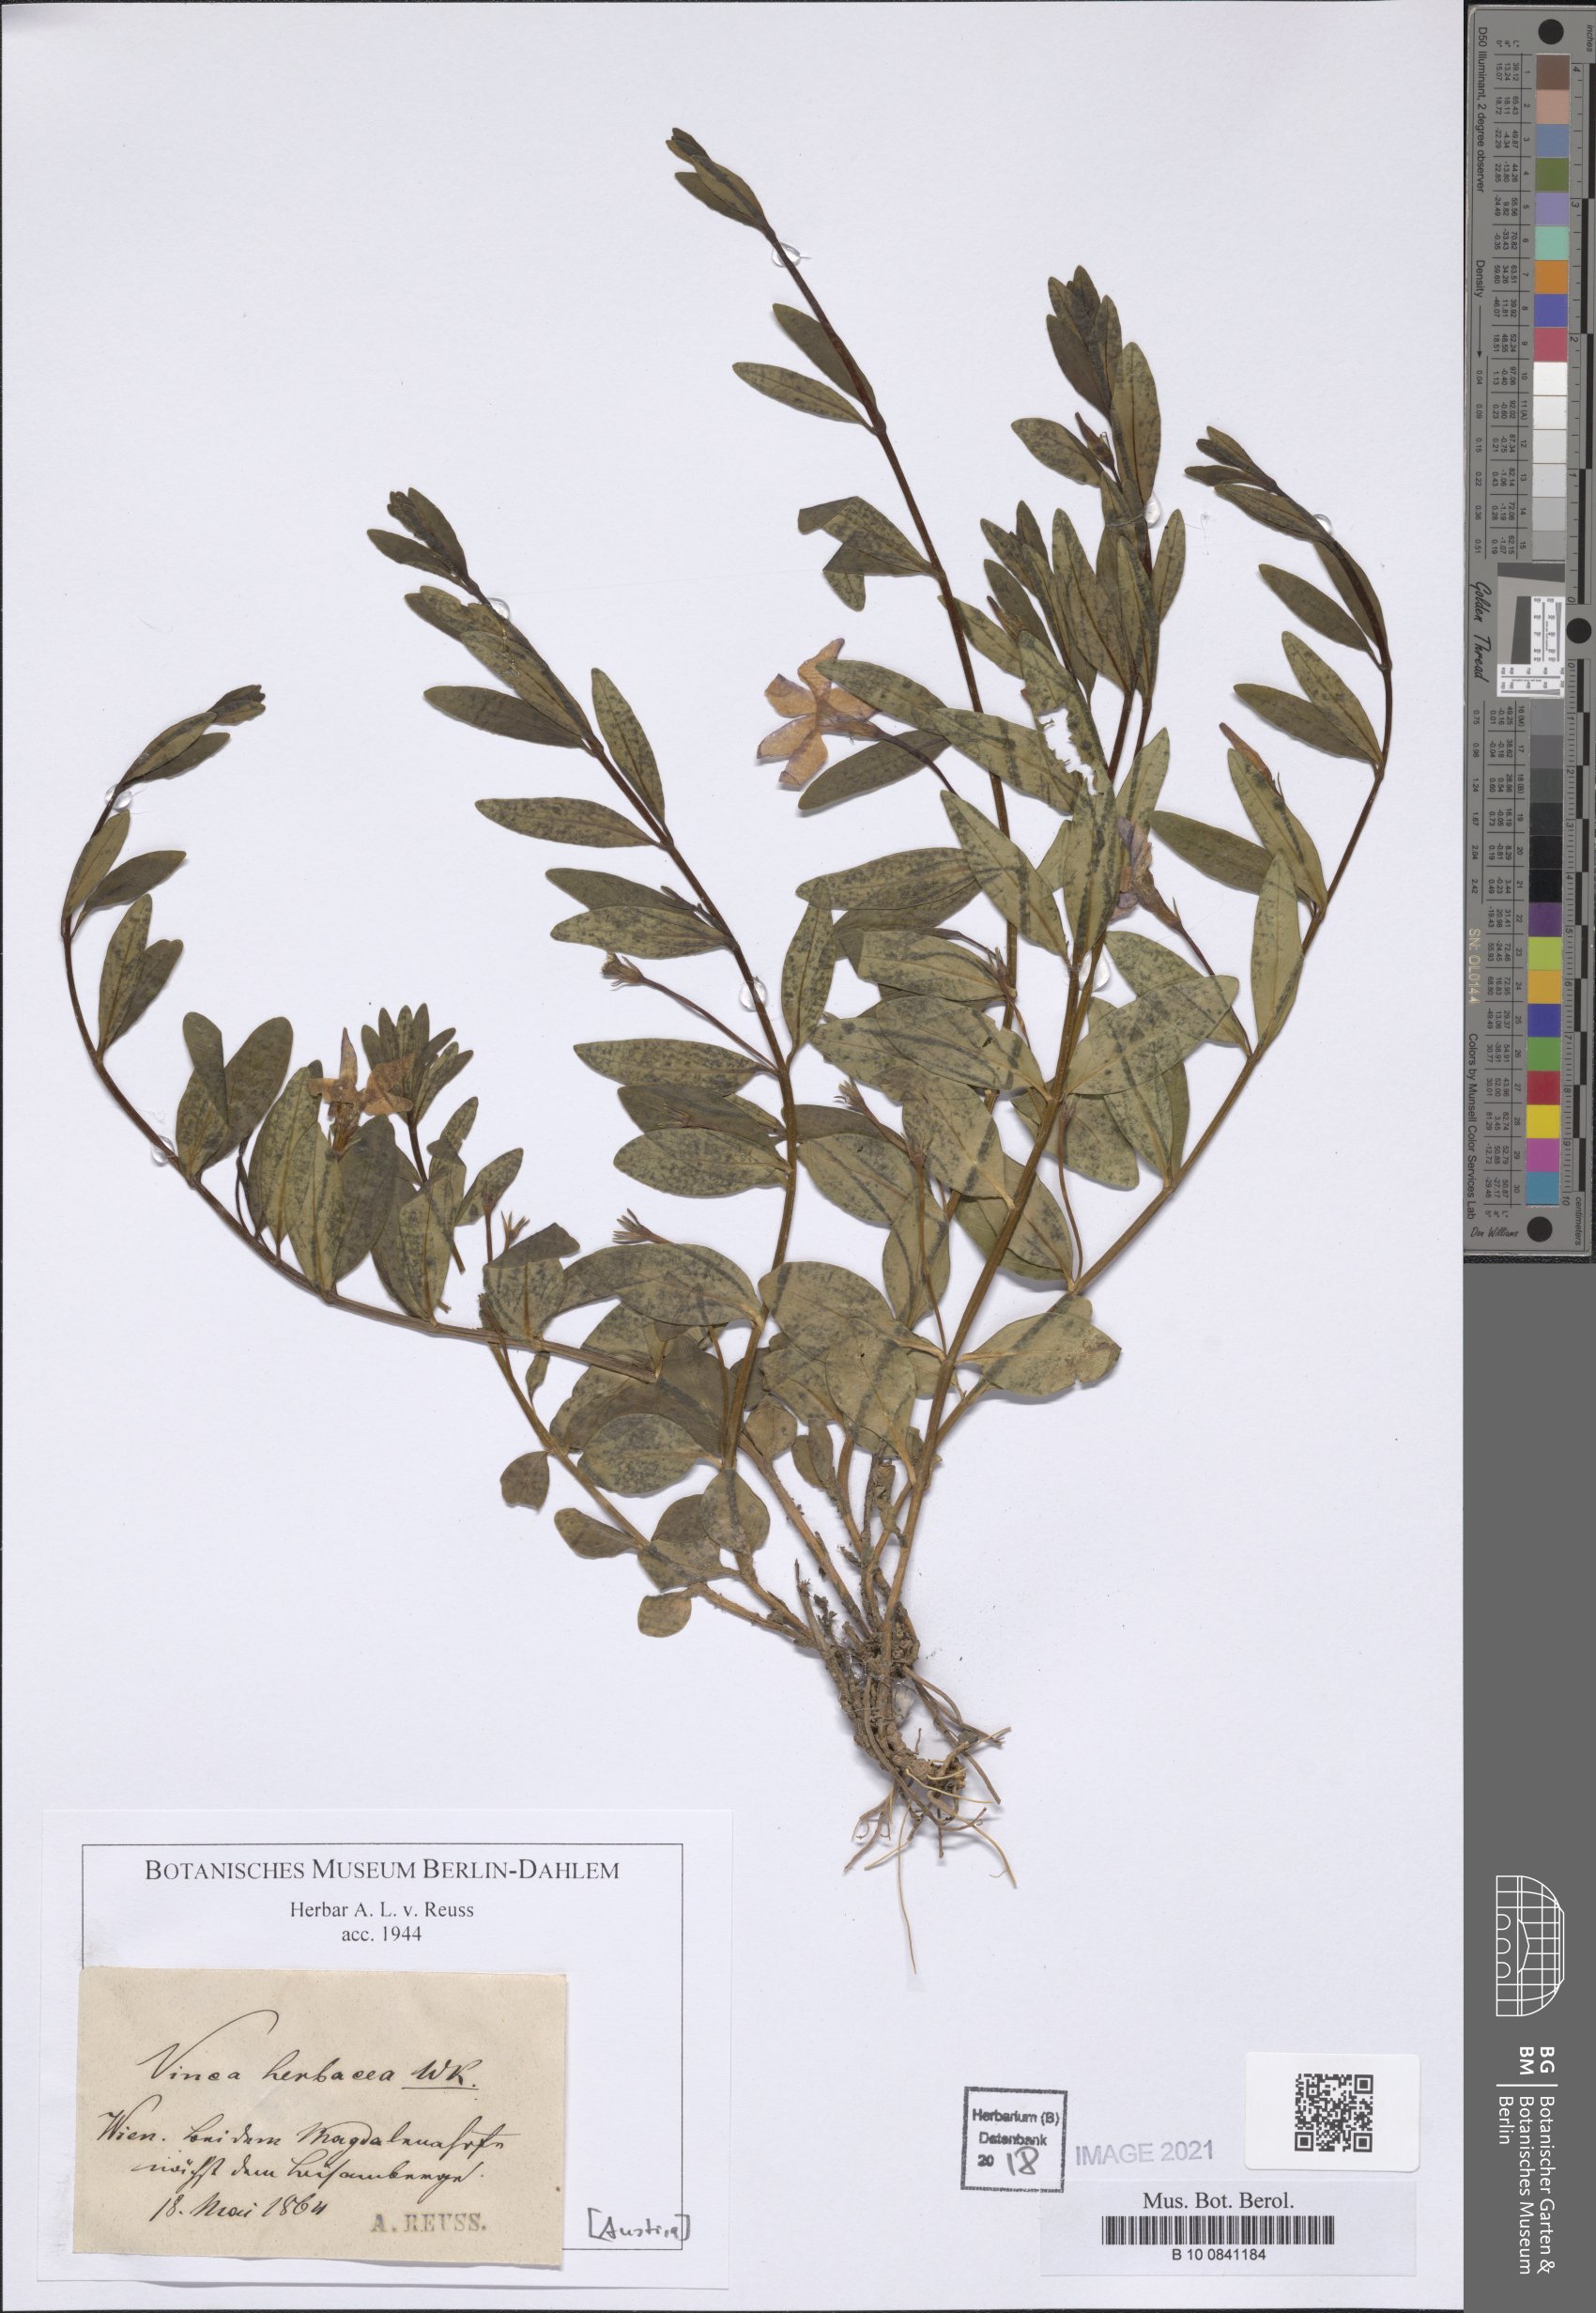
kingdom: Plantae
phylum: Tracheophyta
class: Magnoliopsida
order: Gentianales
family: Apocynaceae
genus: Vinca
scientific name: Vinca herbacea
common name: Herbaceous periwinkle
